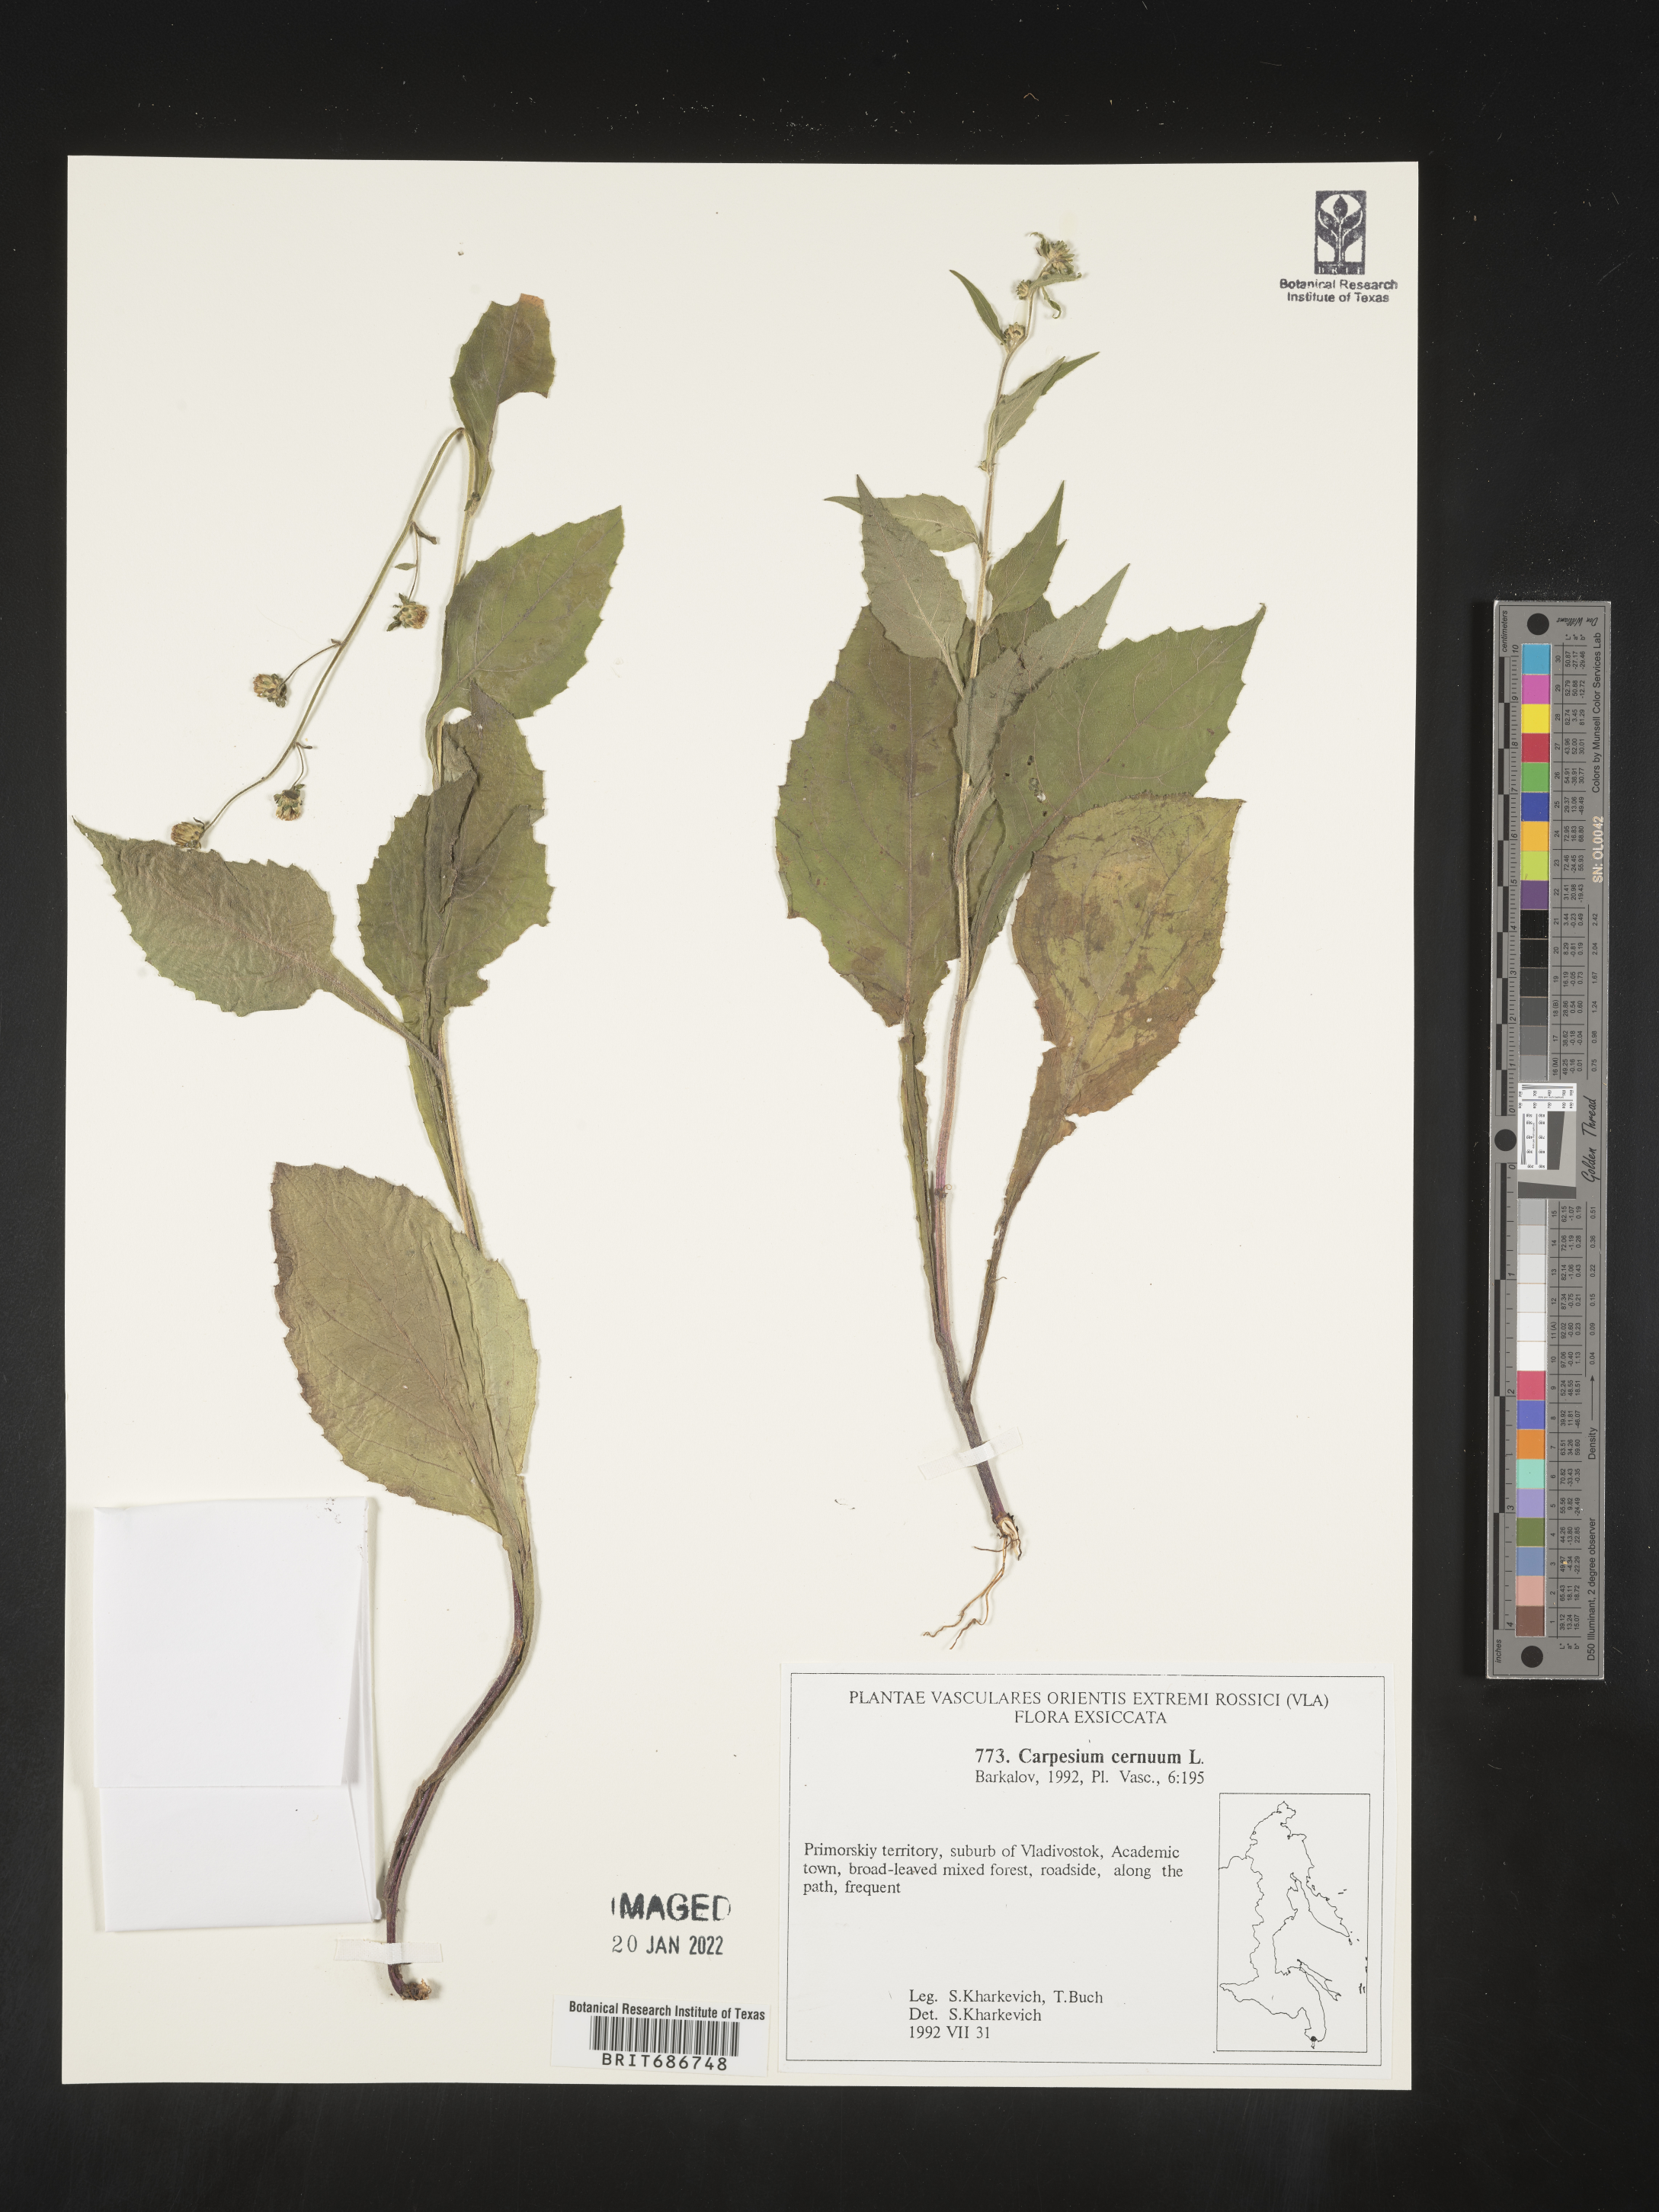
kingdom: Plantae
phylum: Tracheophyta
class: Magnoliopsida
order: Asterales
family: Asteraceae
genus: Carpesium
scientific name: Carpesium
